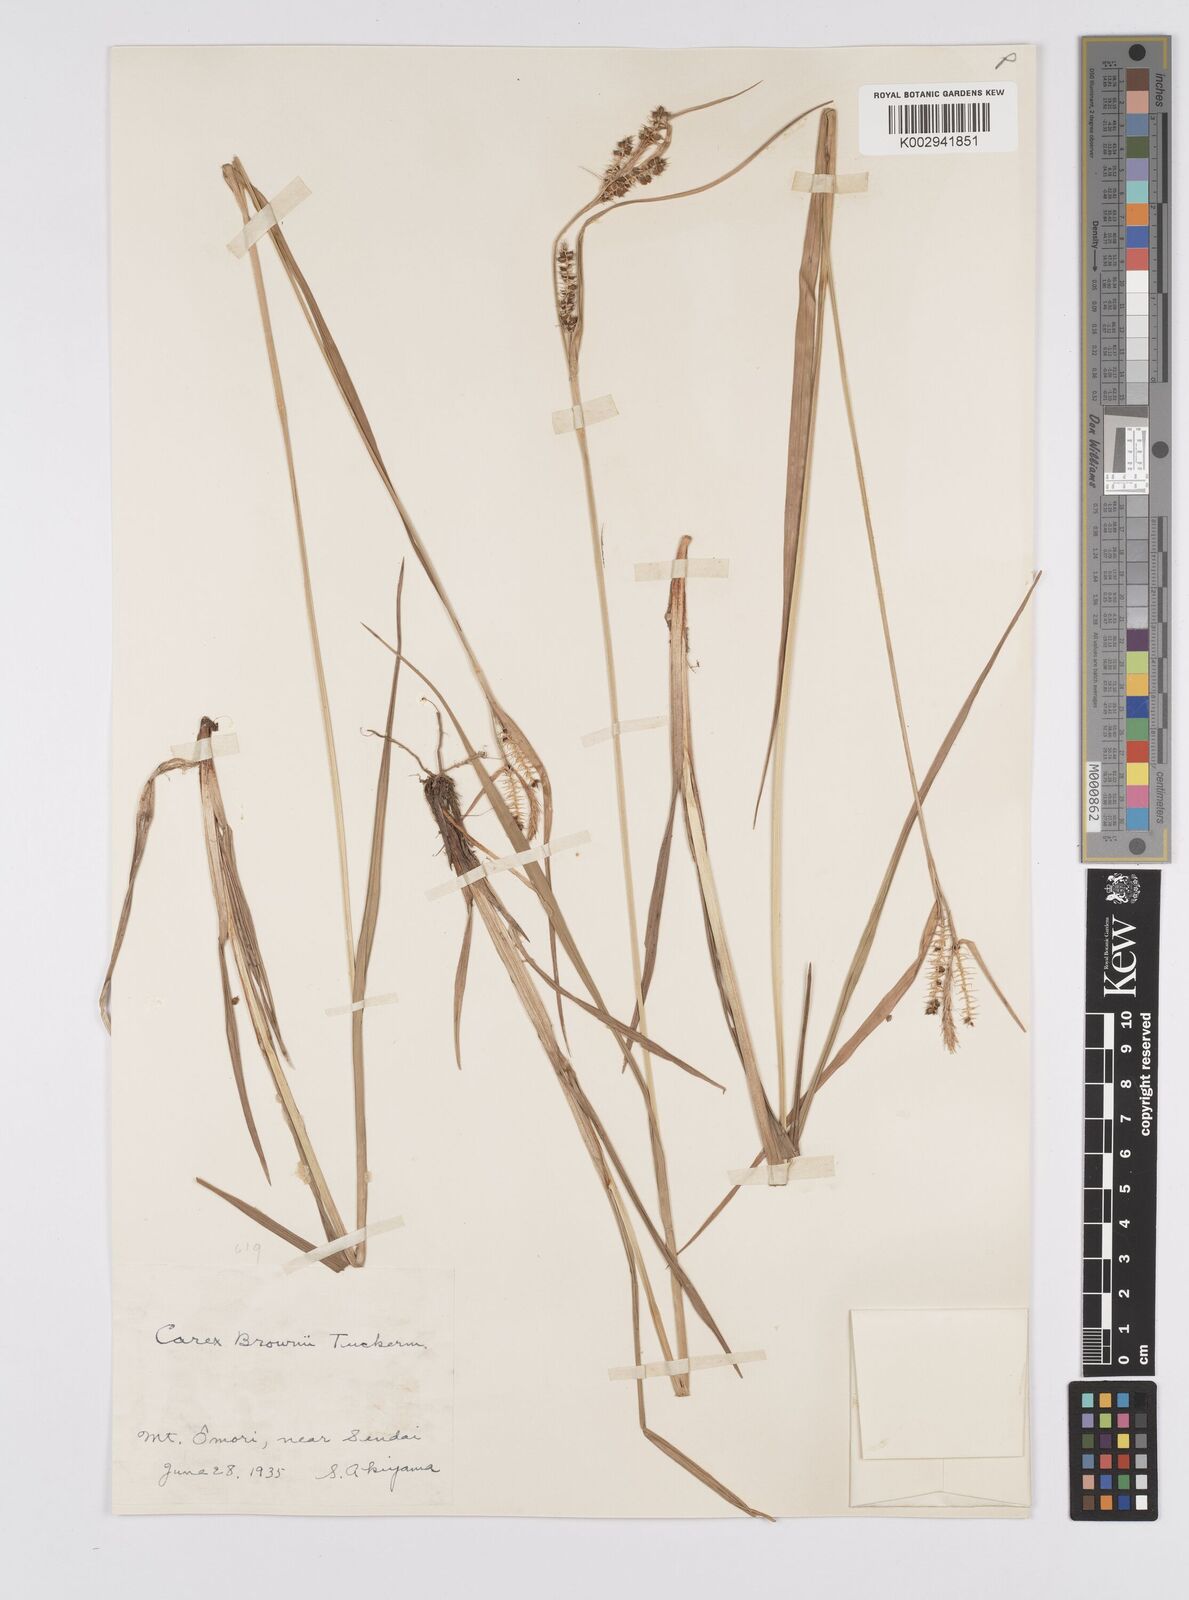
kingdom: Plantae
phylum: Tracheophyta
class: Liliopsida
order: Poales
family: Cyperaceae
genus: Carex
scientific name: Carex brownii
